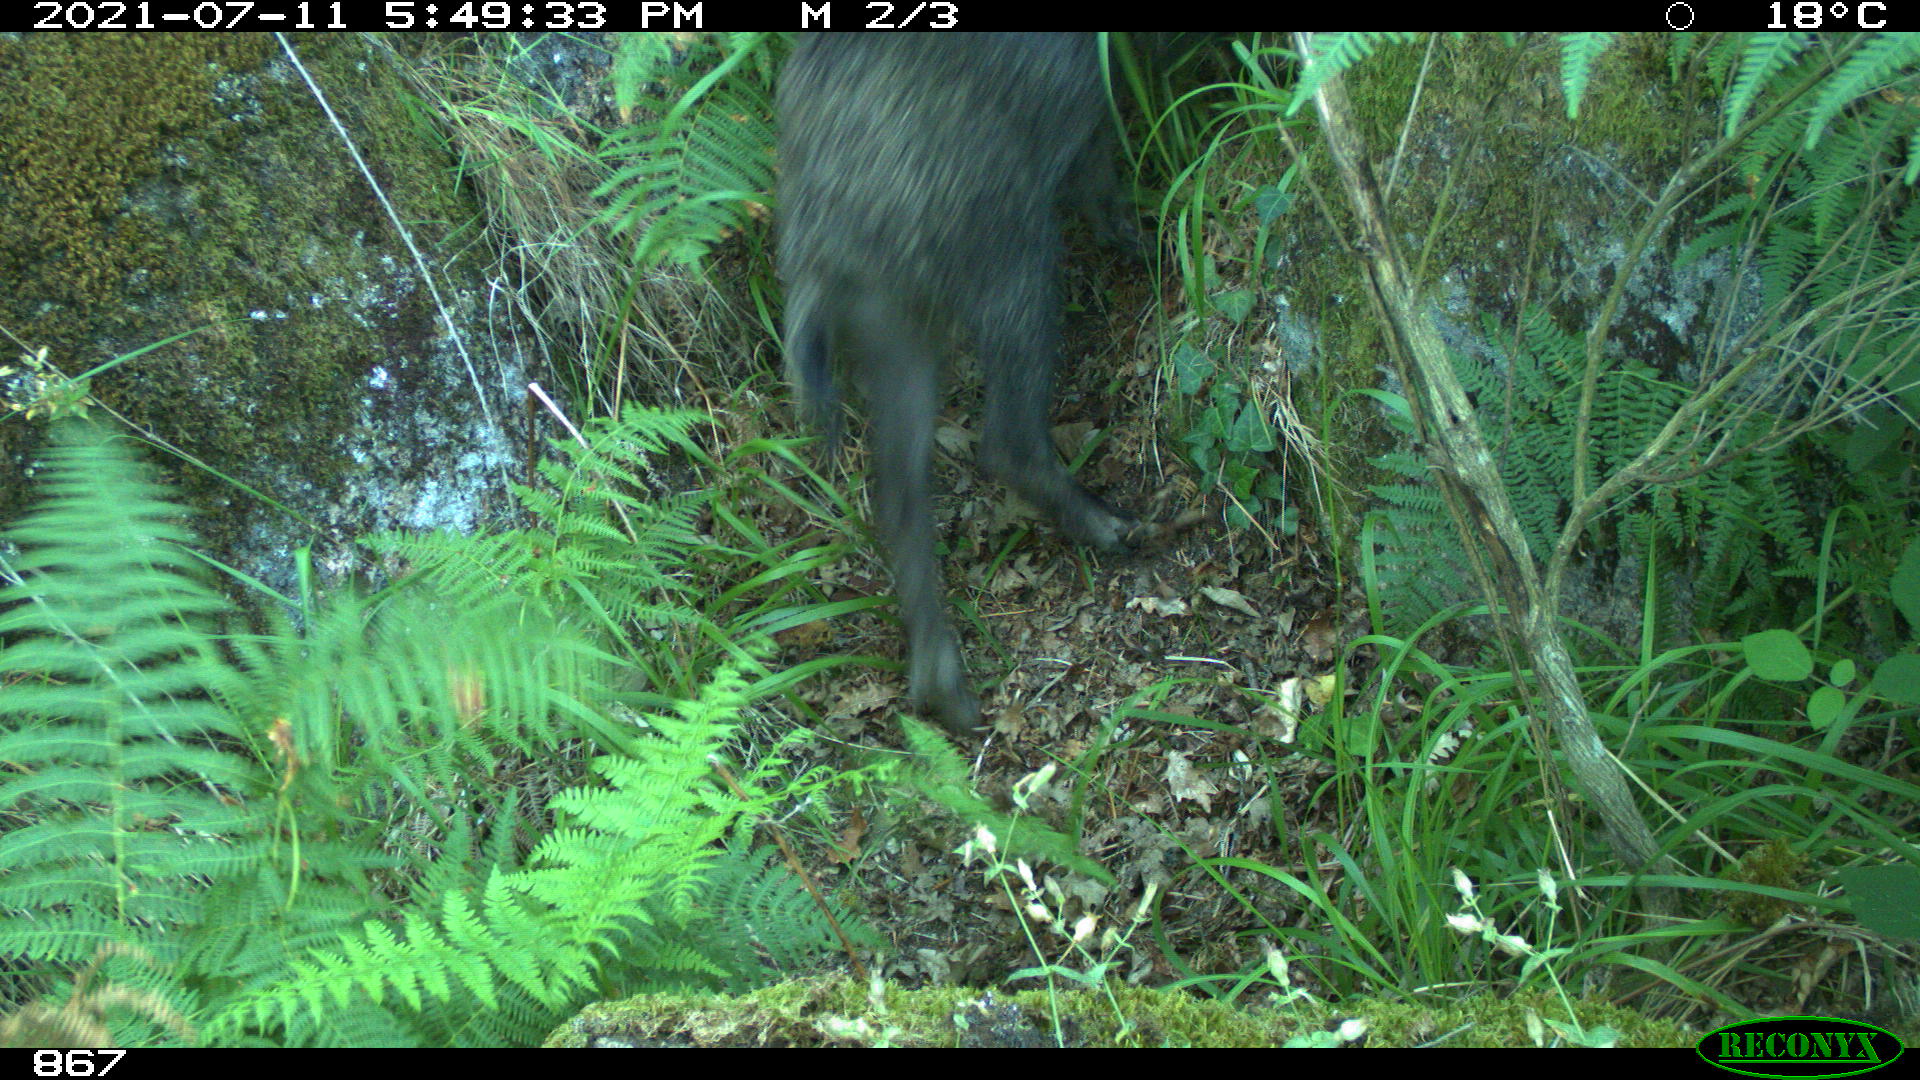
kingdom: Animalia
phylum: Chordata
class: Mammalia
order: Artiodactyla
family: Suidae
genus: Sus
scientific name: Sus scrofa
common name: Wild boar
